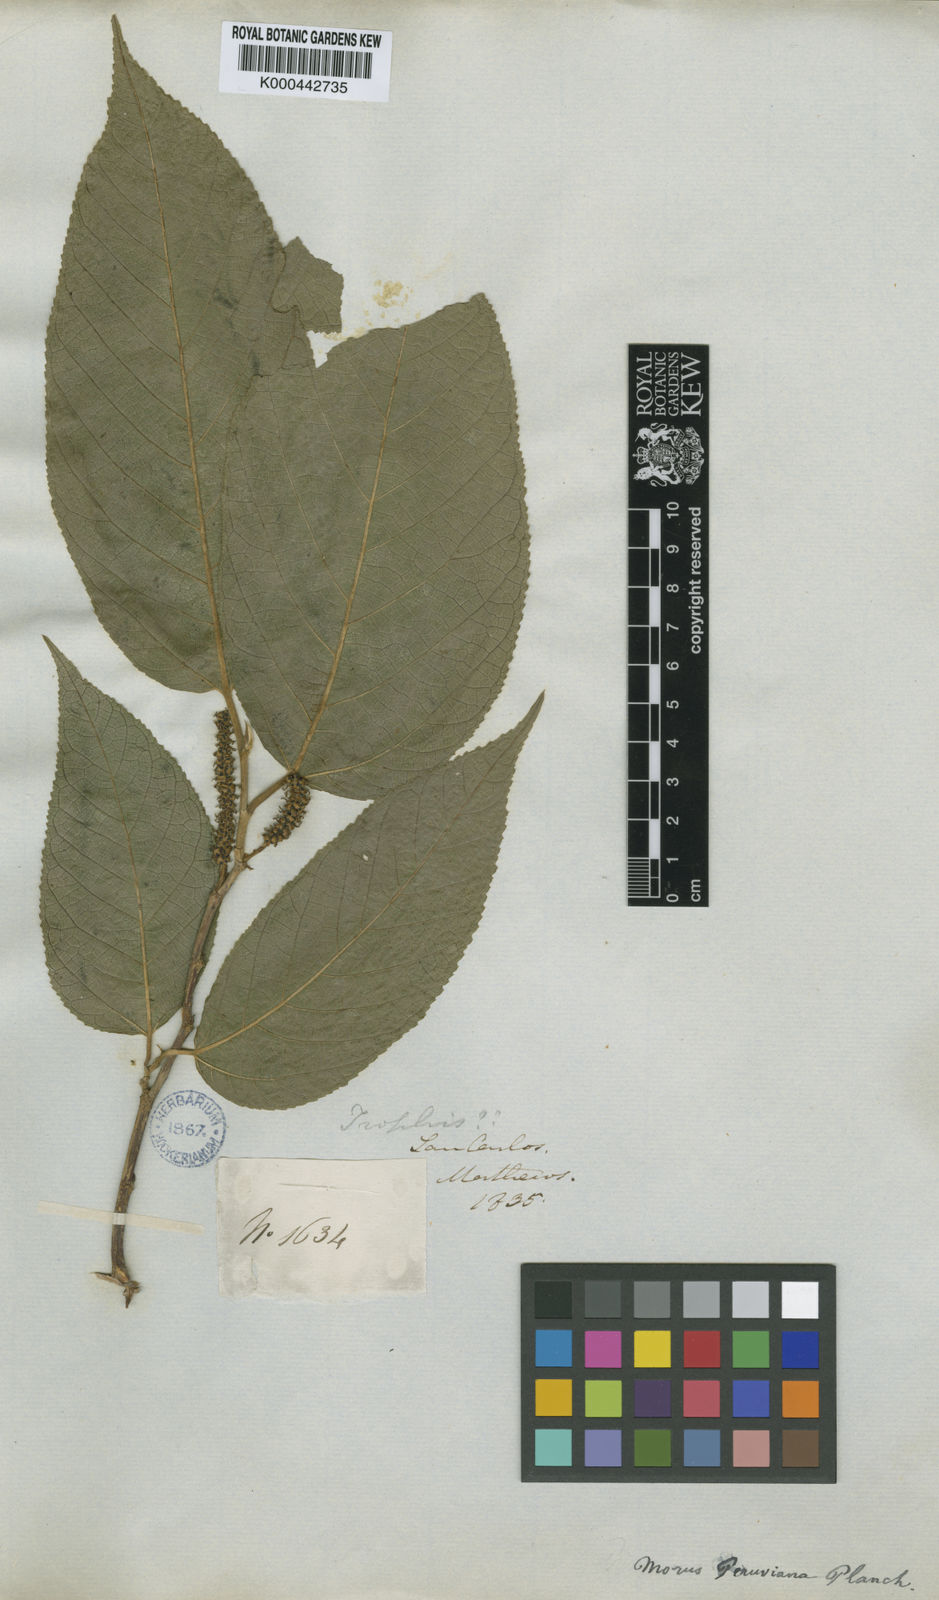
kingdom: Plantae
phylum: Tracheophyta
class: Magnoliopsida
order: Rosales
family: Moraceae
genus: Paratrophis
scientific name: Paratrophis insignis
